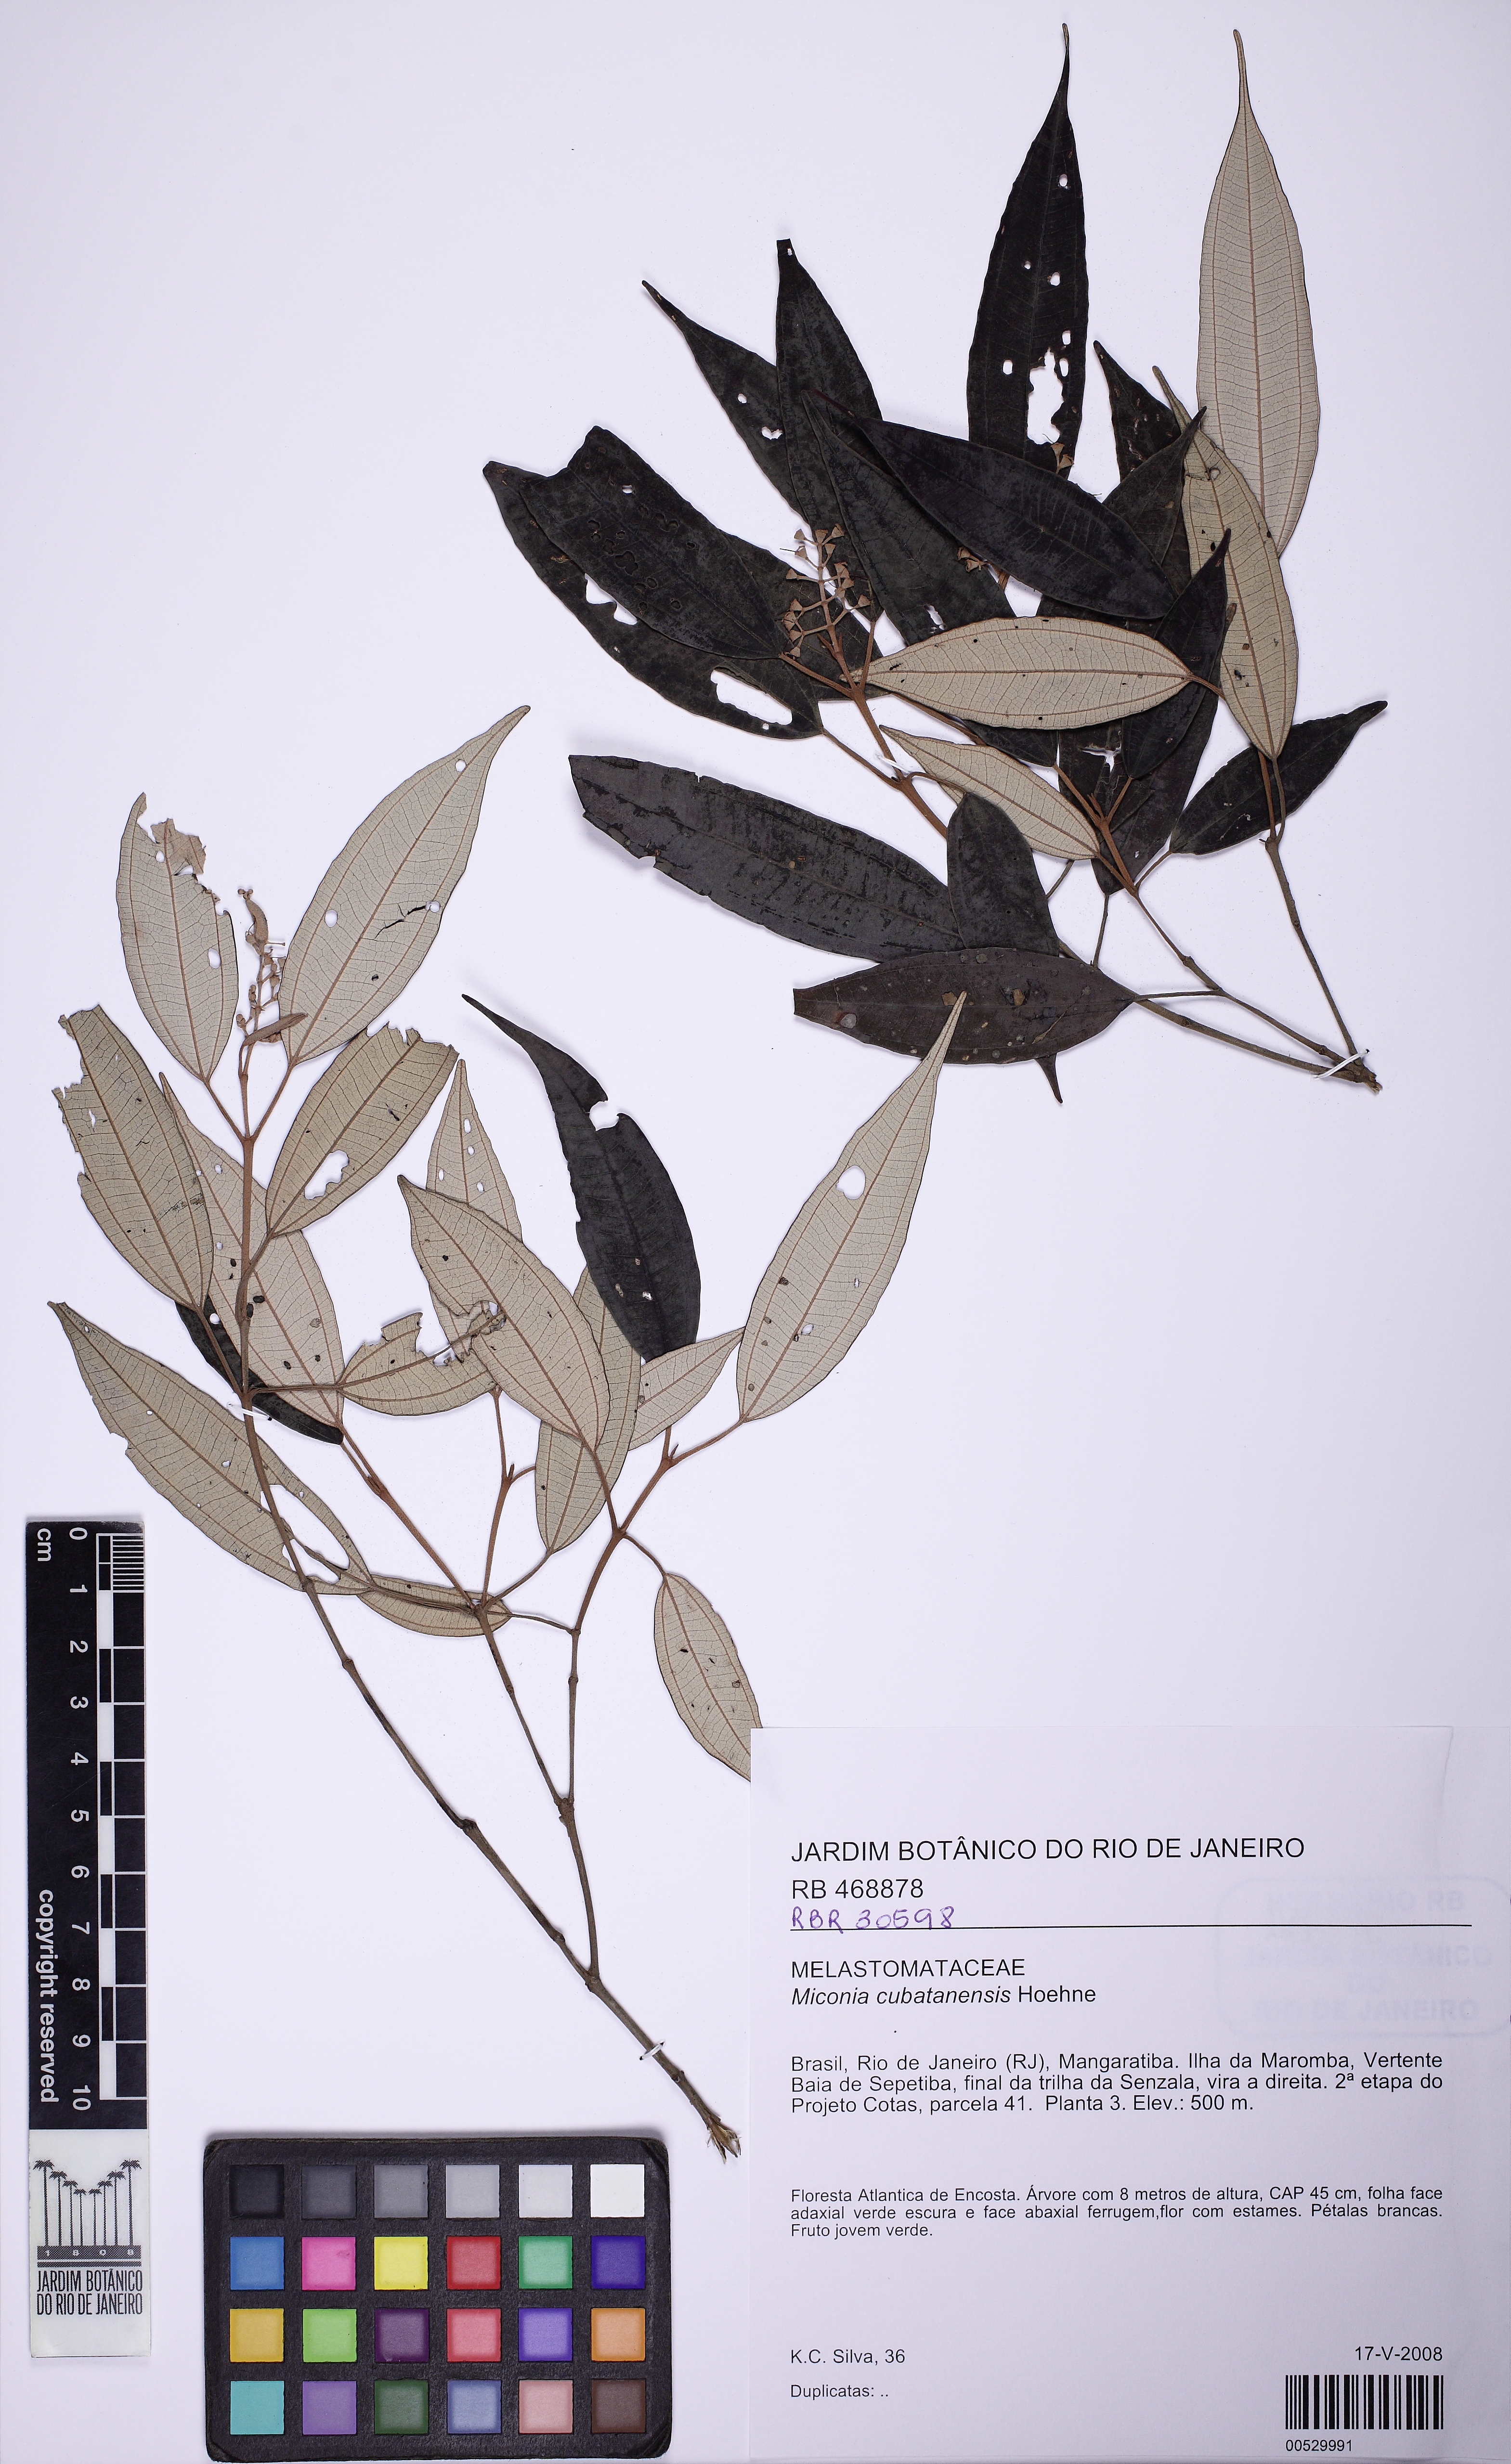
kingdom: Plantae
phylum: Tracheophyta
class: Magnoliopsida
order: Myrtales
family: Melastomataceae
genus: Miconia
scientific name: Miconia cubatanensis
